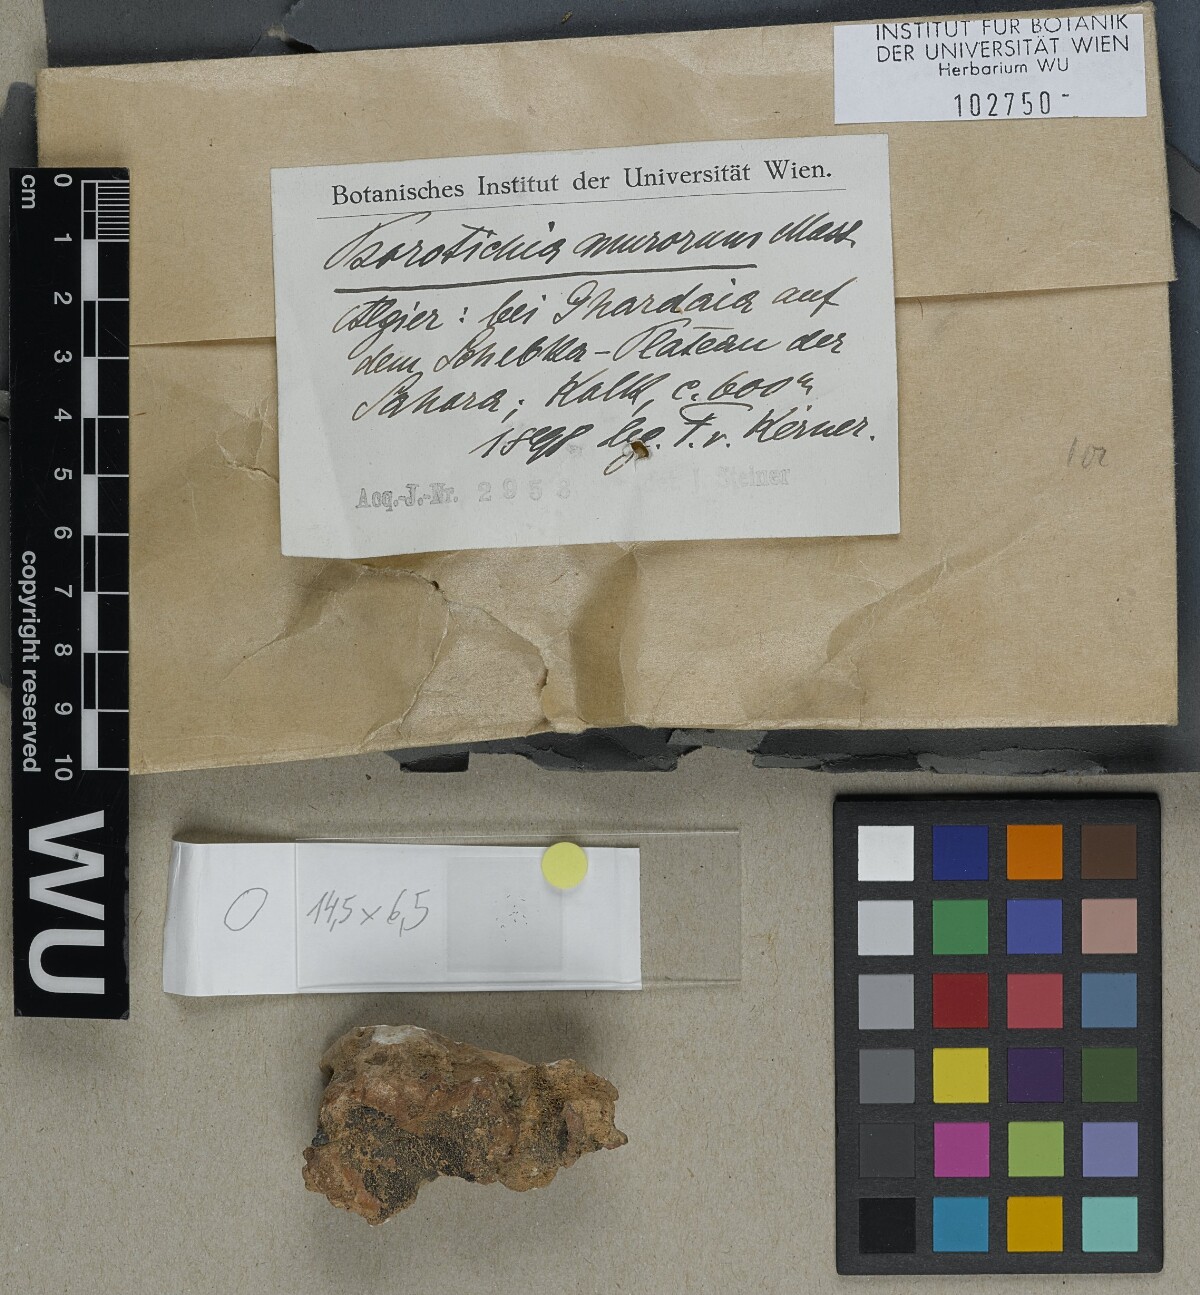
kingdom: Fungi
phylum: Ascomycota
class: Lichinomycetes
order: Lichinales
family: Lichinaceae
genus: Psorotichia
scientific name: Psorotichia murorum
